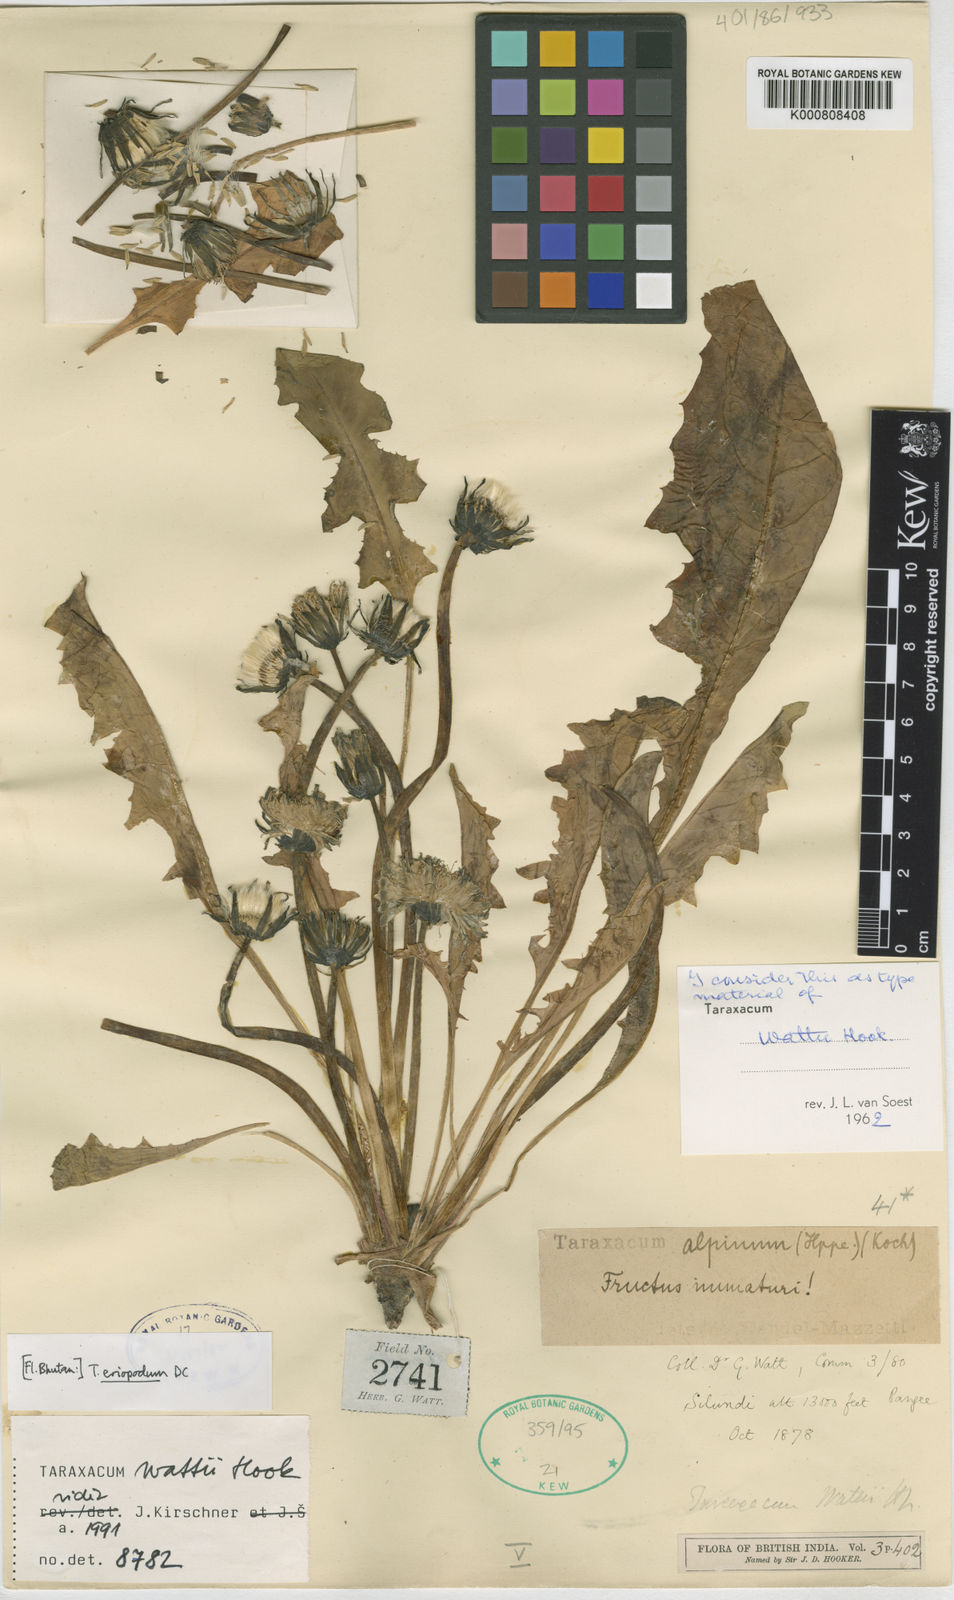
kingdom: Plantae
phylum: Tracheophyta
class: Magnoliopsida
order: Asterales
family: Asteraceae
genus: Taraxacum
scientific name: Taraxacum
